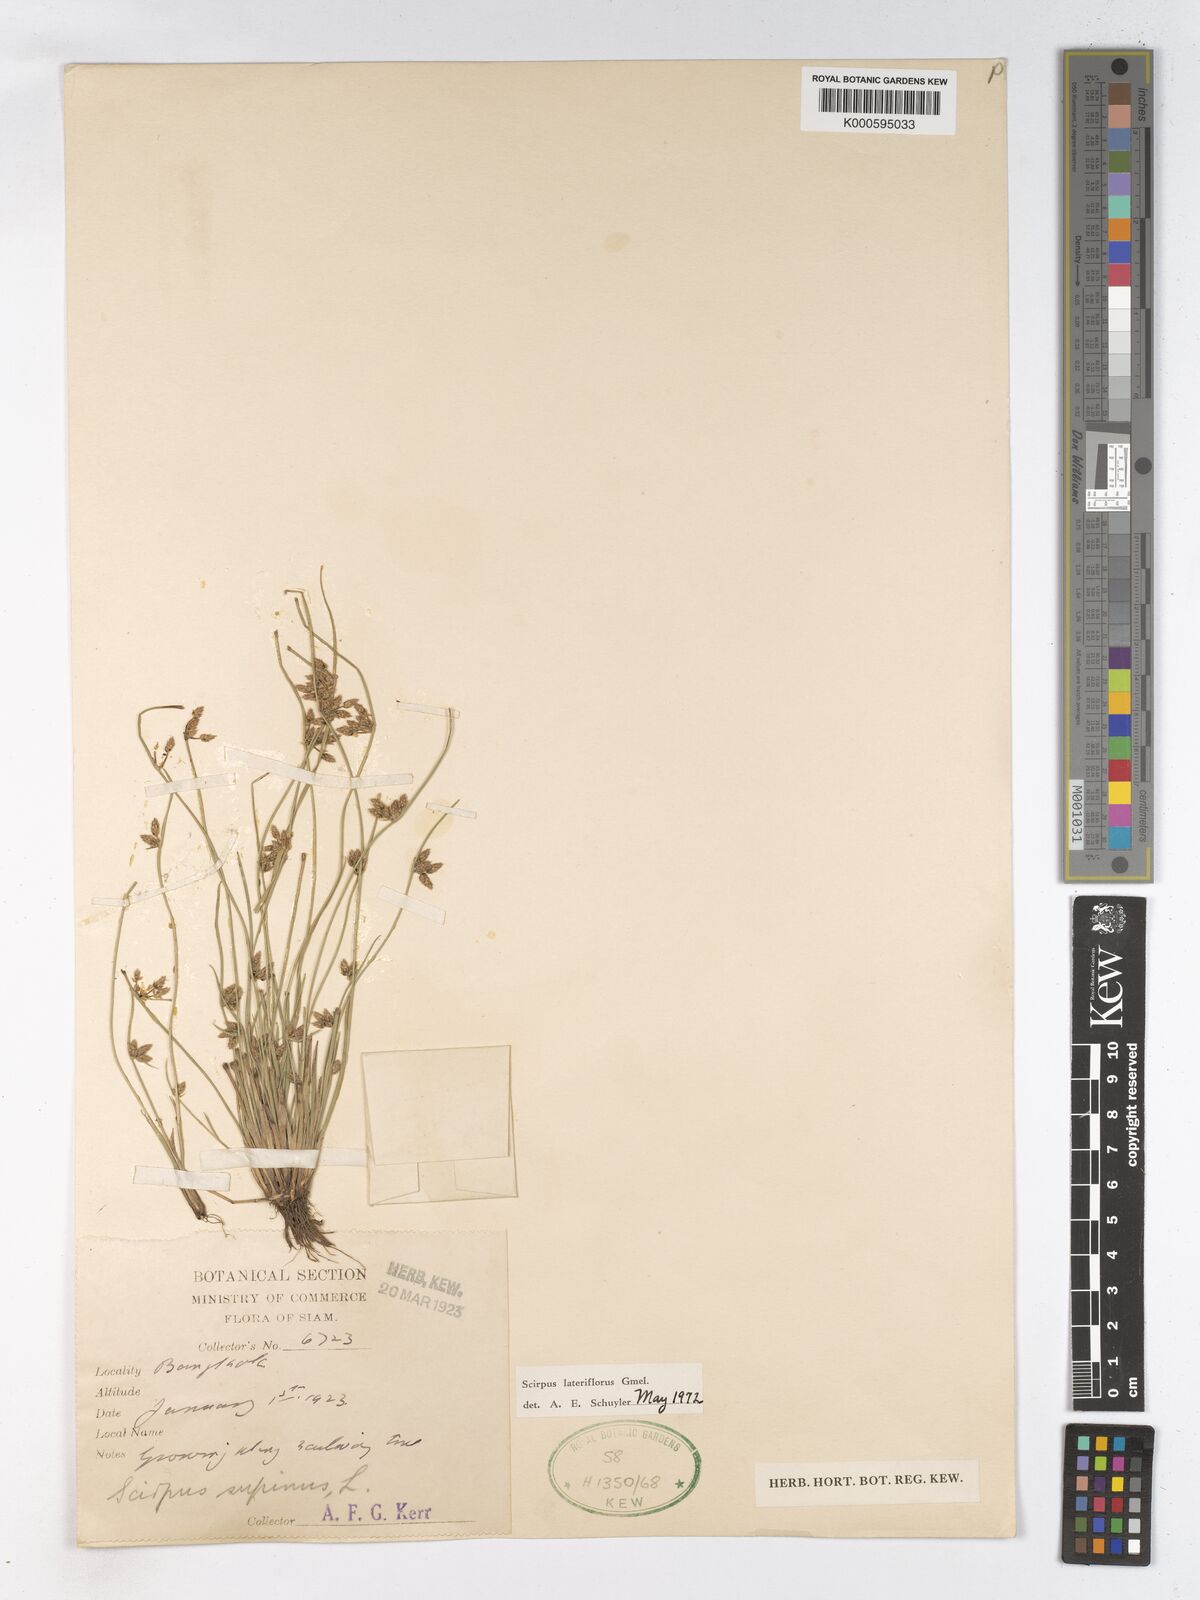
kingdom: Plantae
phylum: Tracheophyta
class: Liliopsida
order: Poales
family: Cyperaceae
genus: Schoenoplectiella
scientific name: Schoenoplectiella supina
